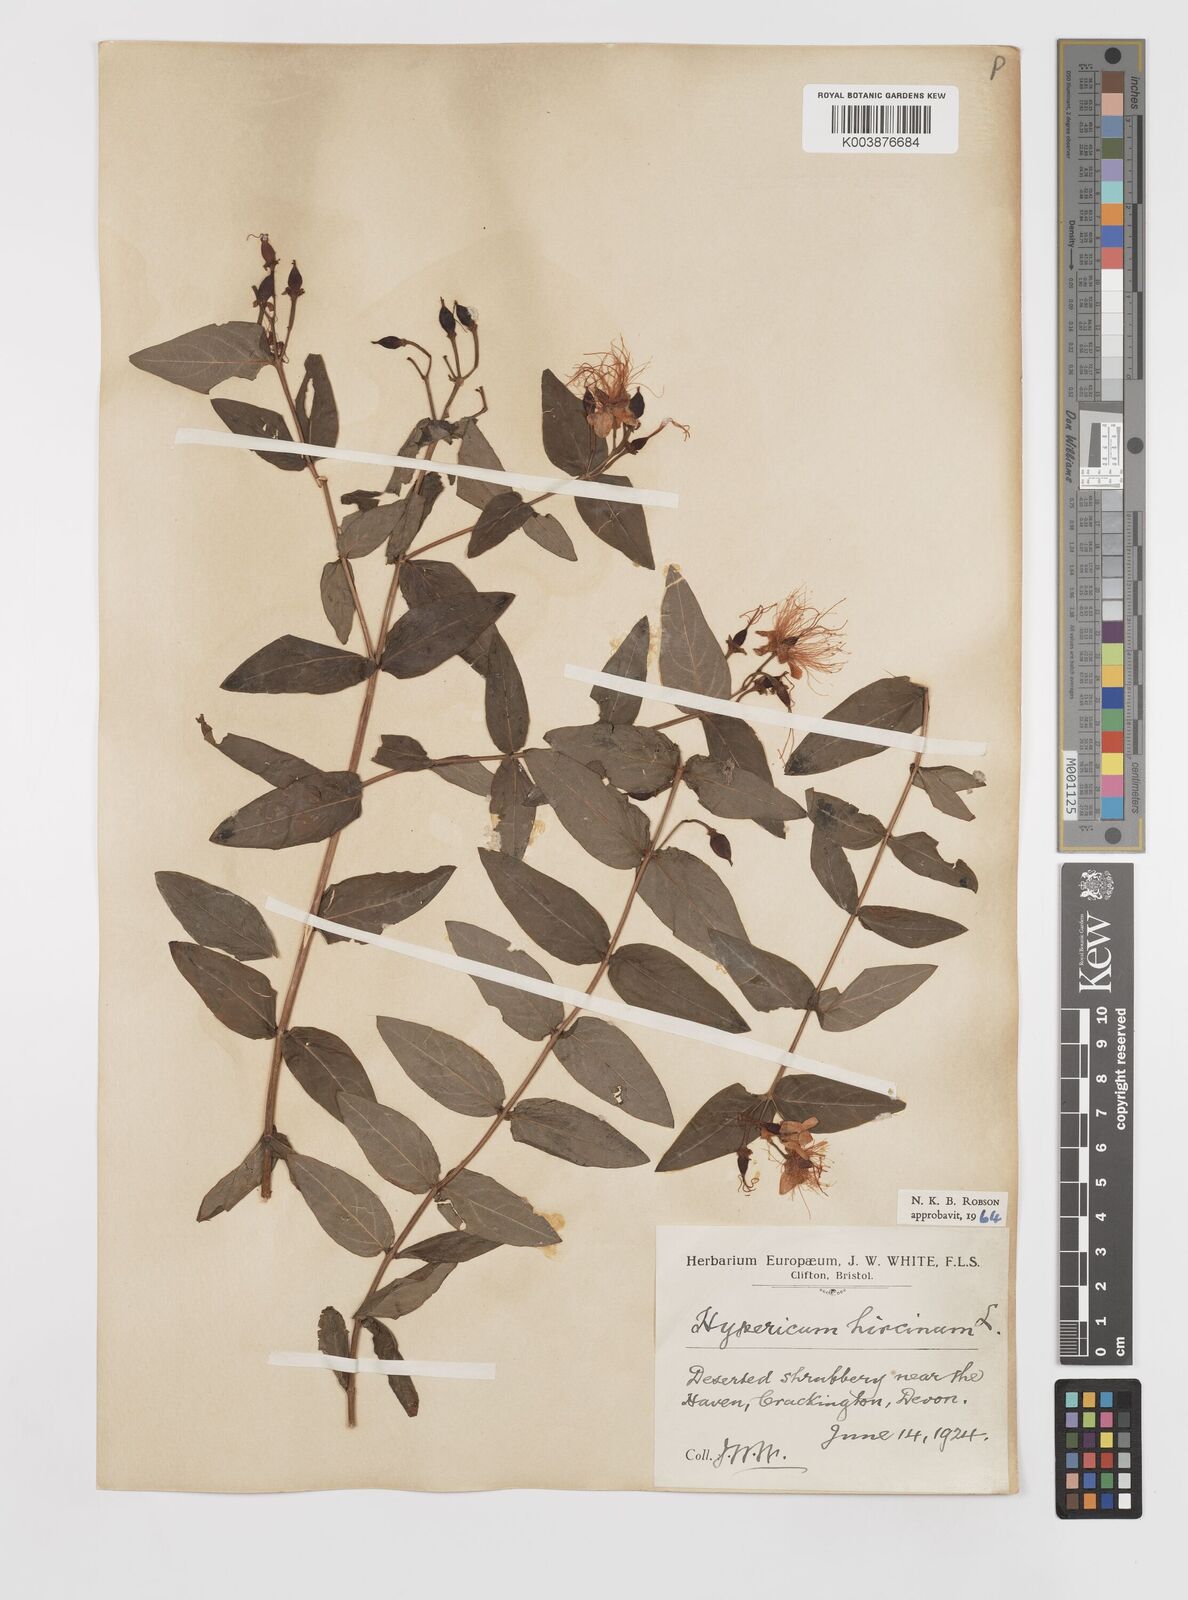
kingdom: Plantae
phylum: Tracheophyta
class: Magnoliopsida
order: Malpighiales
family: Hypericaceae
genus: Hypericum
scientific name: Hypericum hircinum
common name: Stinking tutsan
